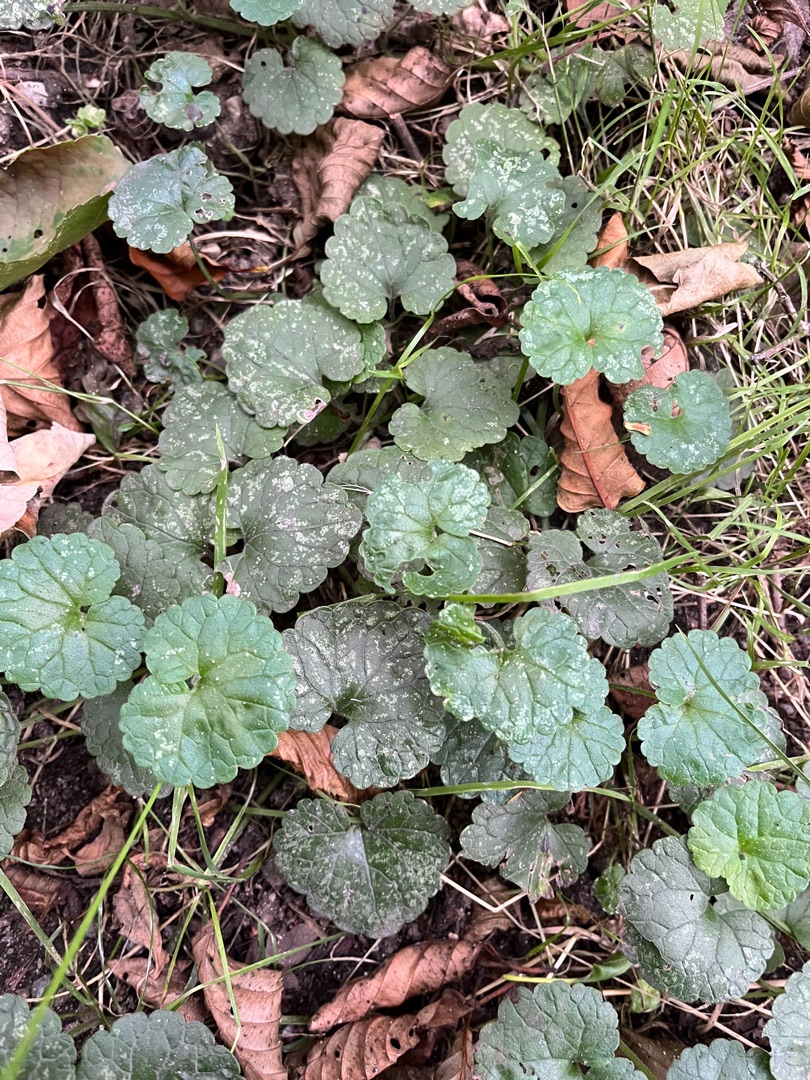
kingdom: Plantae
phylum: Tracheophyta
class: Magnoliopsida
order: Lamiales
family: Lamiaceae
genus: Glechoma
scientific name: Glechoma hederacea
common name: Korsknap
